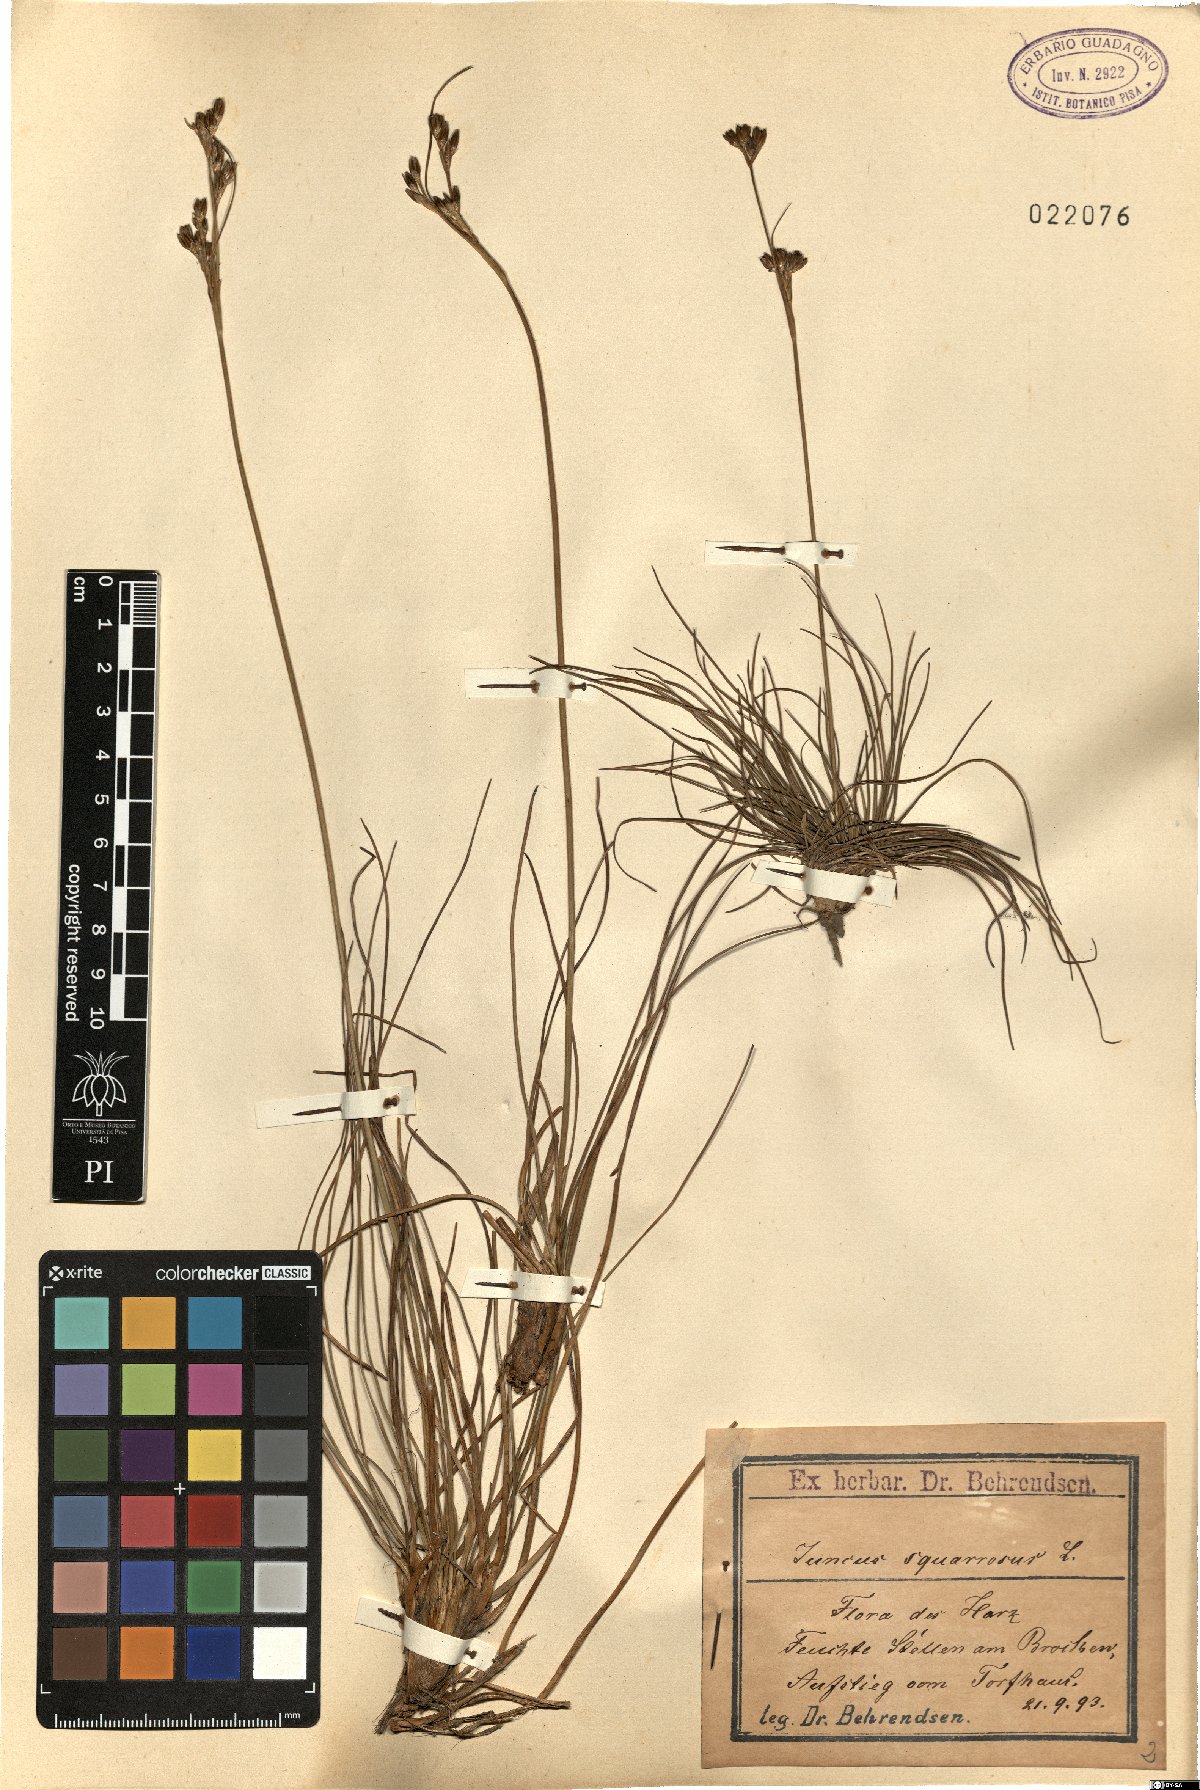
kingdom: Plantae
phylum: Tracheophyta
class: Liliopsida
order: Poales
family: Juncaceae
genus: Juncus
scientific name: Juncus squarrosus
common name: Heath rush
